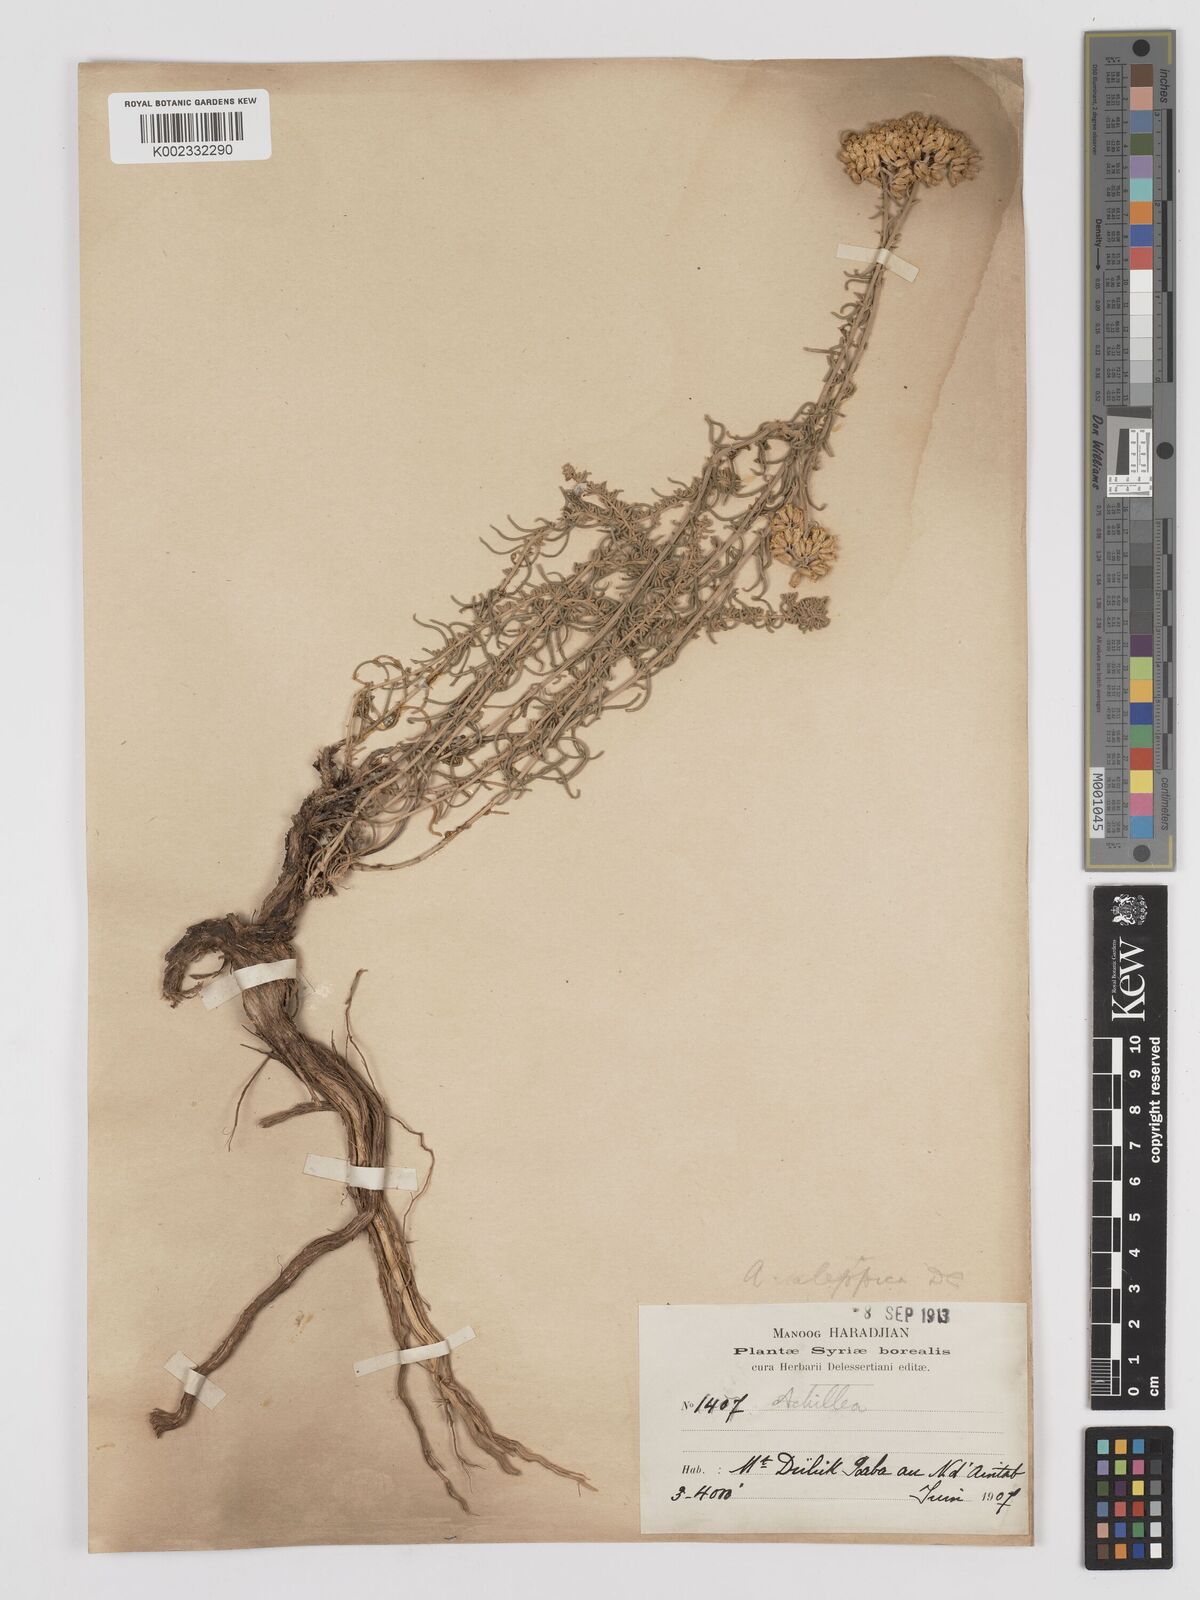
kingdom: Plantae
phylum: Tracheophyta
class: Magnoliopsida
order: Asterales
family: Asteraceae
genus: Achillea
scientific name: Achillea aleppica
